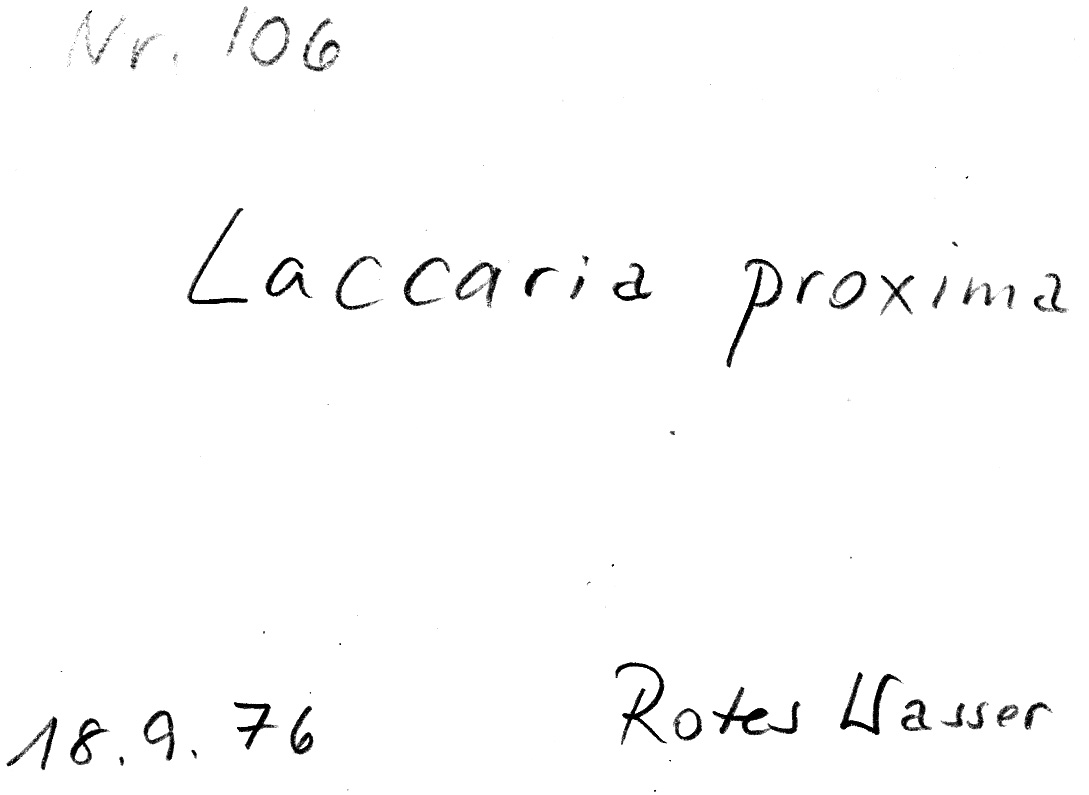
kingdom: Fungi
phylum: Basidiomycota
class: Agaricomycetes
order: Agaricales
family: Hydnangiaceae
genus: Laccaria
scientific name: Laccaria proxima
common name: Scurfy deceiver
